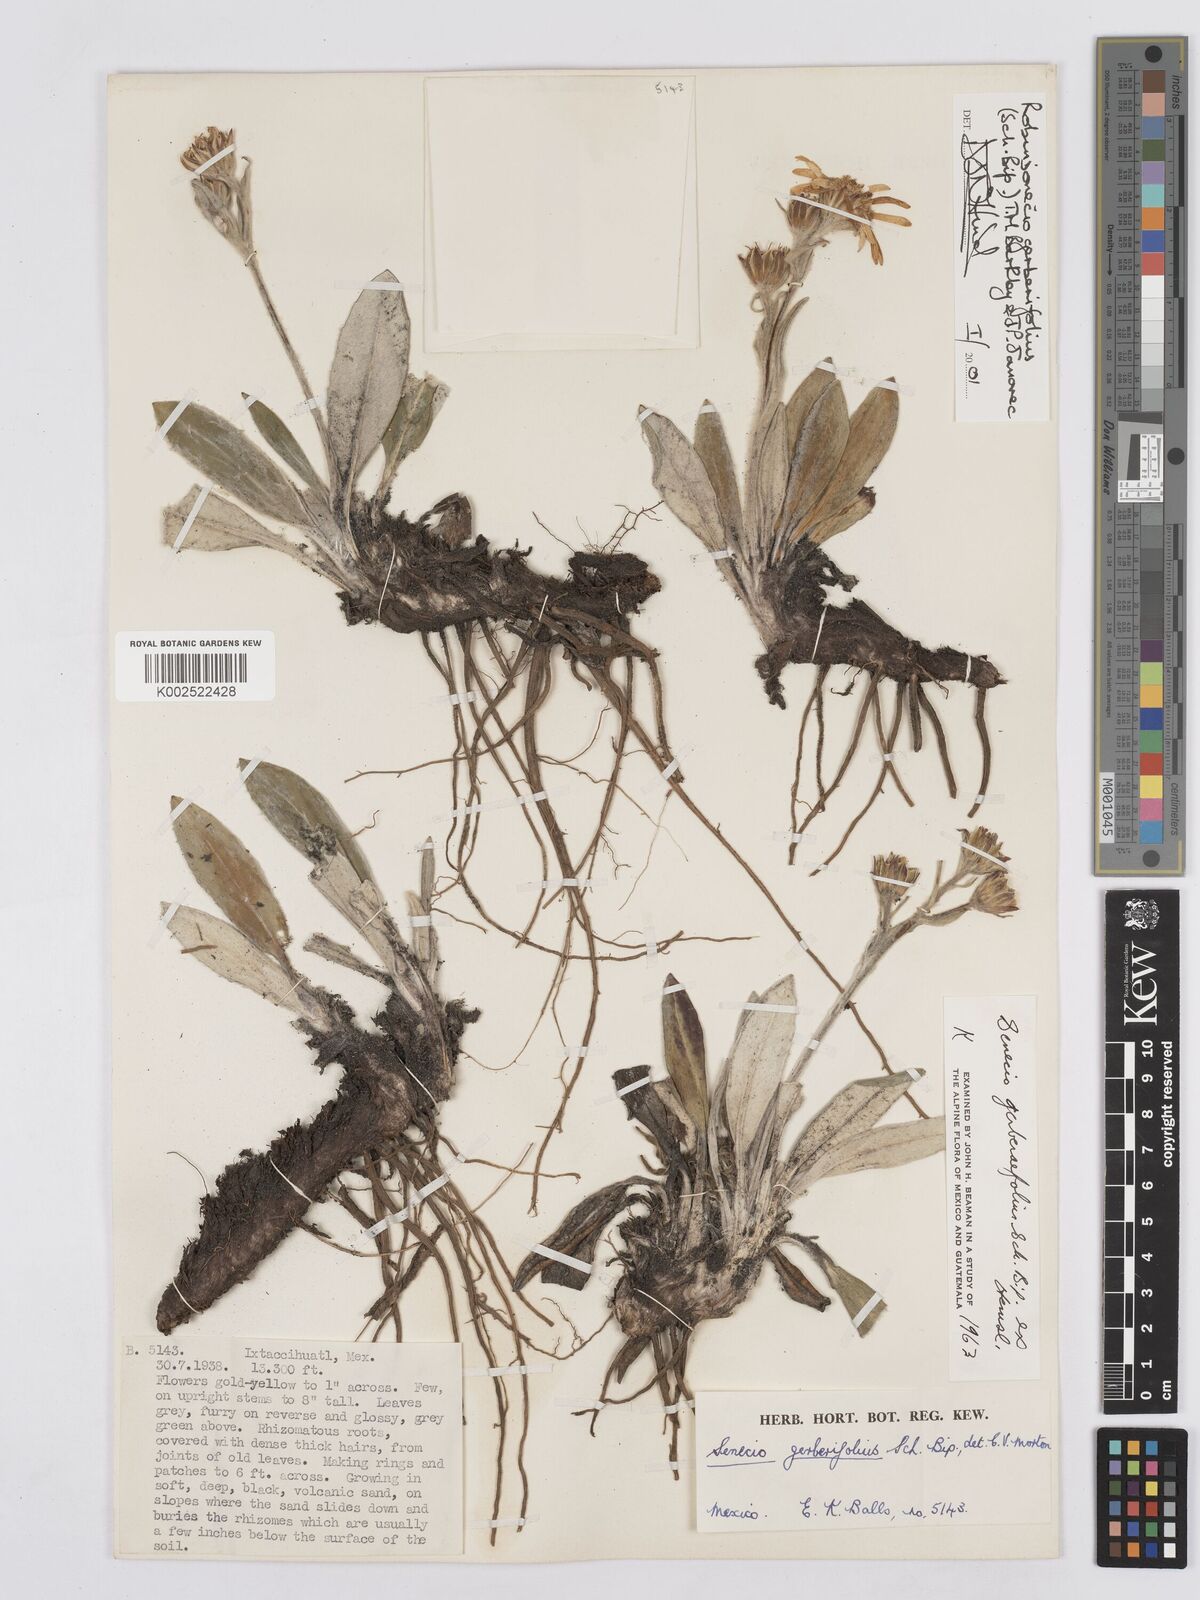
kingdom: Plantae
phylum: Tracheophyta
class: Magnoliopsida
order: Asterales
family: Asteraceae
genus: Robinsonecio
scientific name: Robinsonecio gerberifolius
